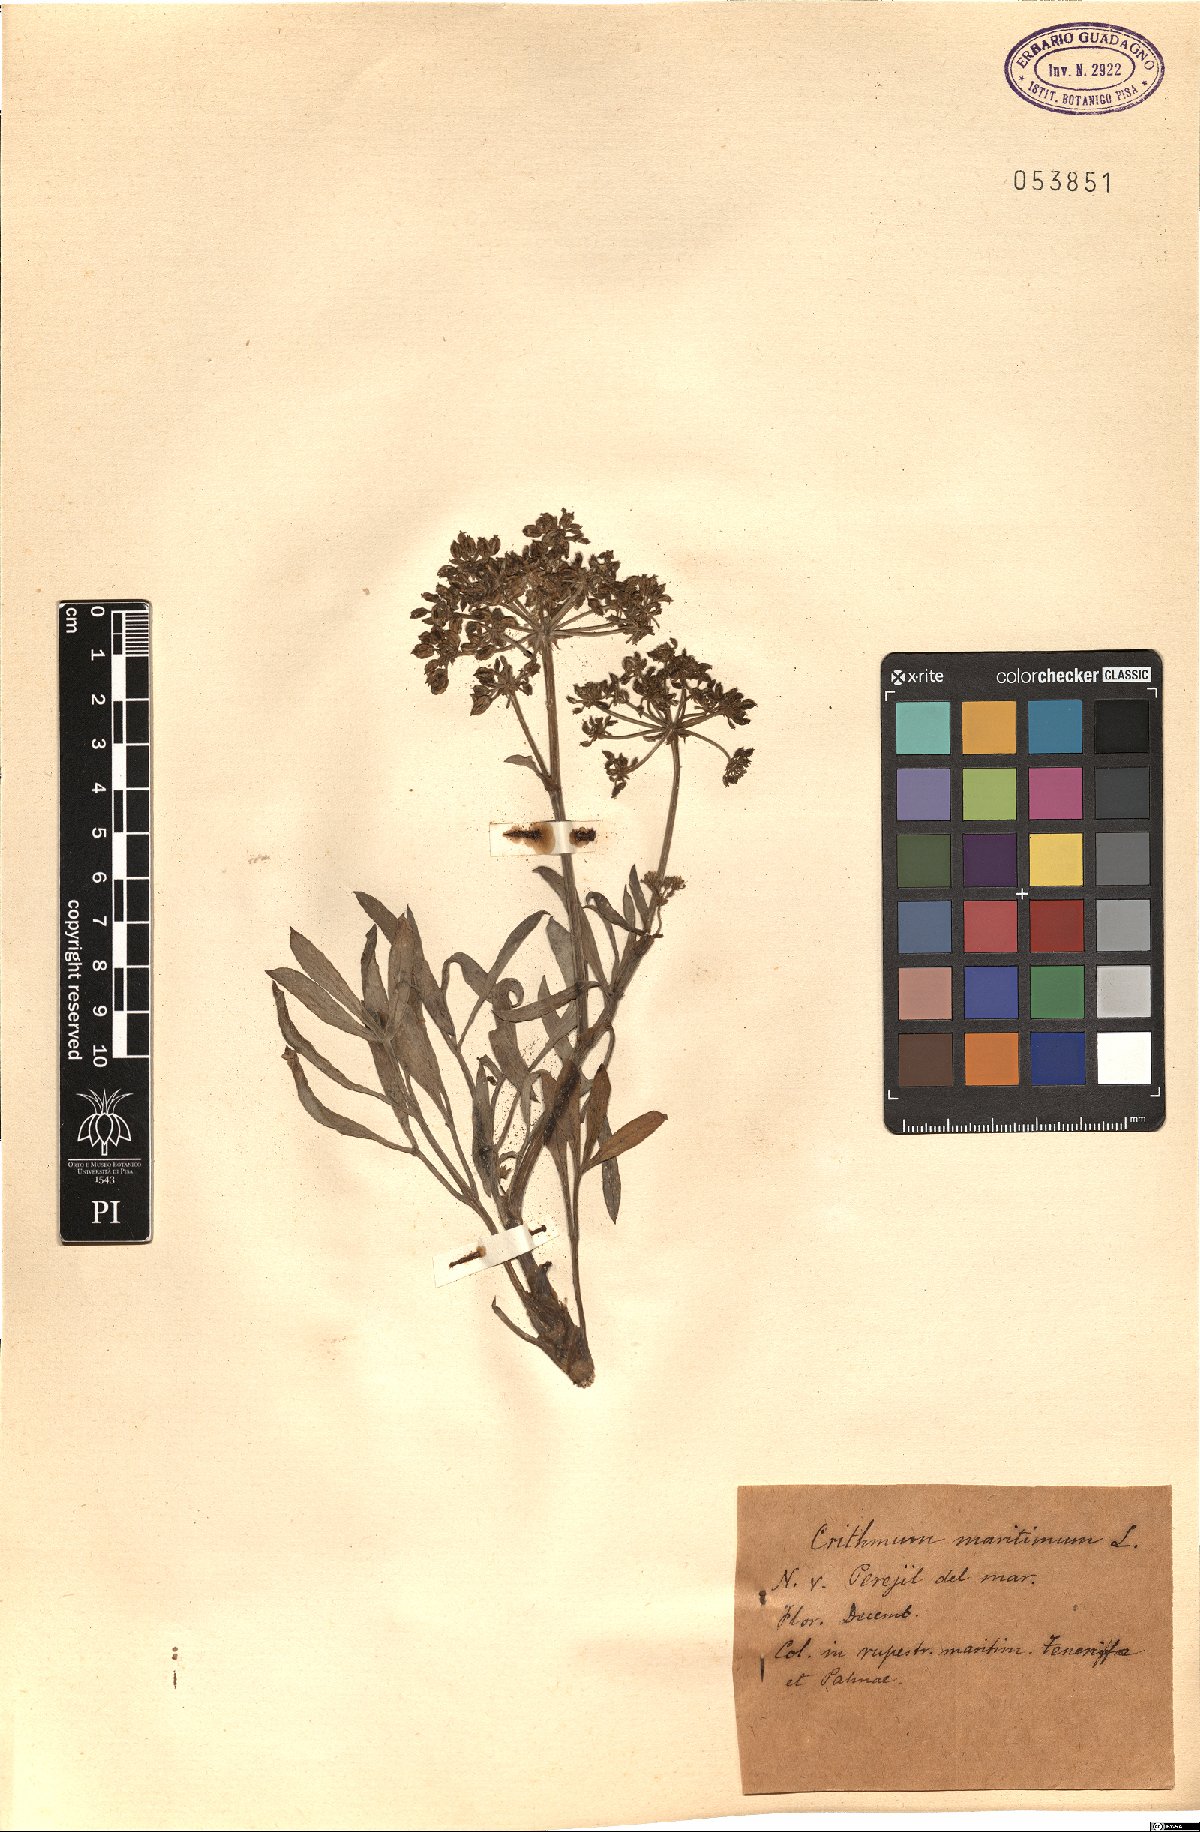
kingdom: Plantae
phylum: Tracheophyta
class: Magnoliopsida
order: Apiales
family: Apiaceae
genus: Crithmum
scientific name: Crithmum maritimum
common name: Rock samphire
